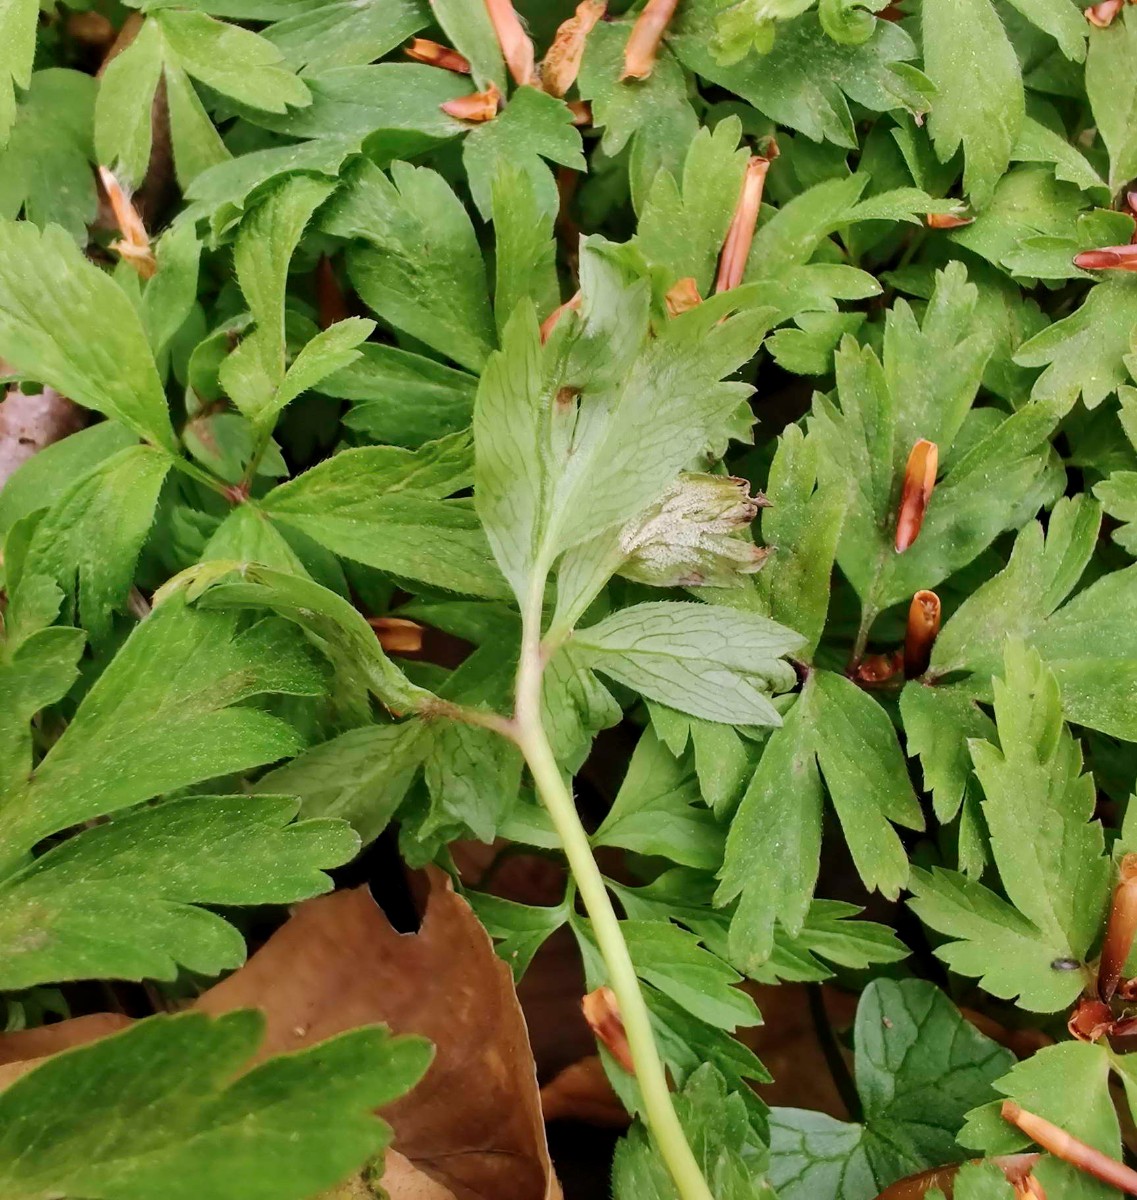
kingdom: Chromista
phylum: Oomycota
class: Peronosporea
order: Peronosporales
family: Peronosporaceae
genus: Plasmoverna
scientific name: Plasmoverna pygmaea
